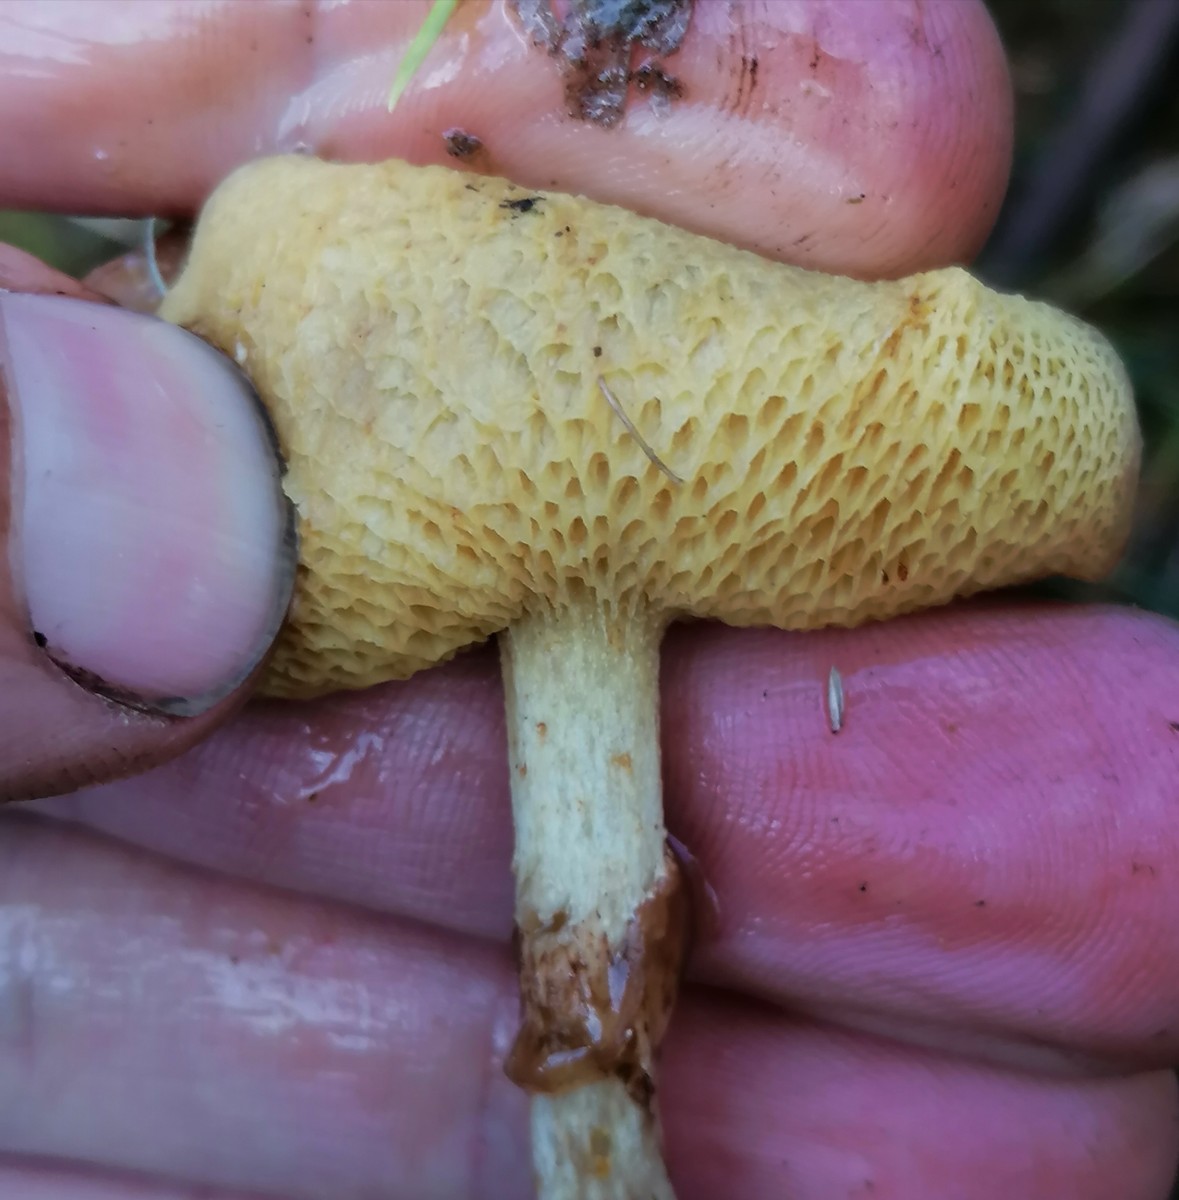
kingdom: Fungi
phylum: Basidiomycota
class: Agaricomycetes
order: Boletales
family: Suillaceae
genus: Suillus
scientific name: Suillus flavidus
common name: mose-slimrørhat
